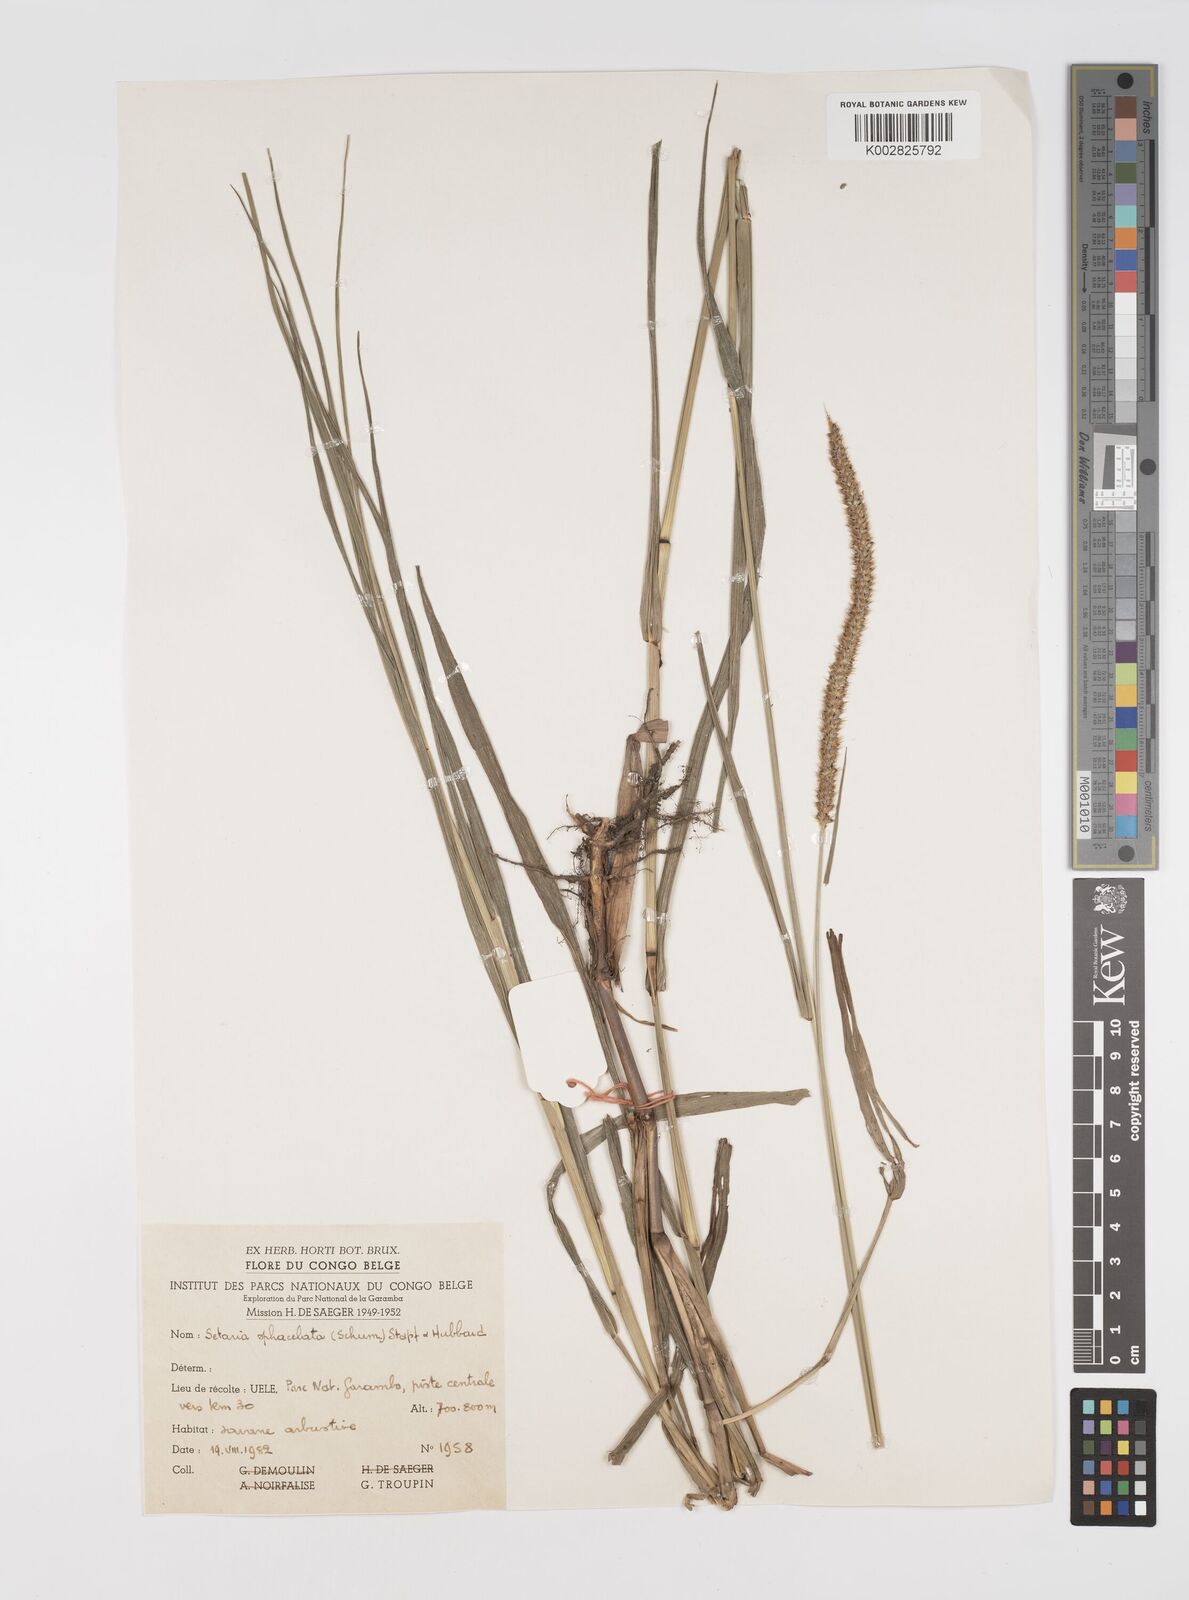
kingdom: Plantae
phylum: Tracheophyta
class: Liliopsida
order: Poales
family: Poaceae
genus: Setaria
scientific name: Setaria sphacelata
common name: African bristlegrass
